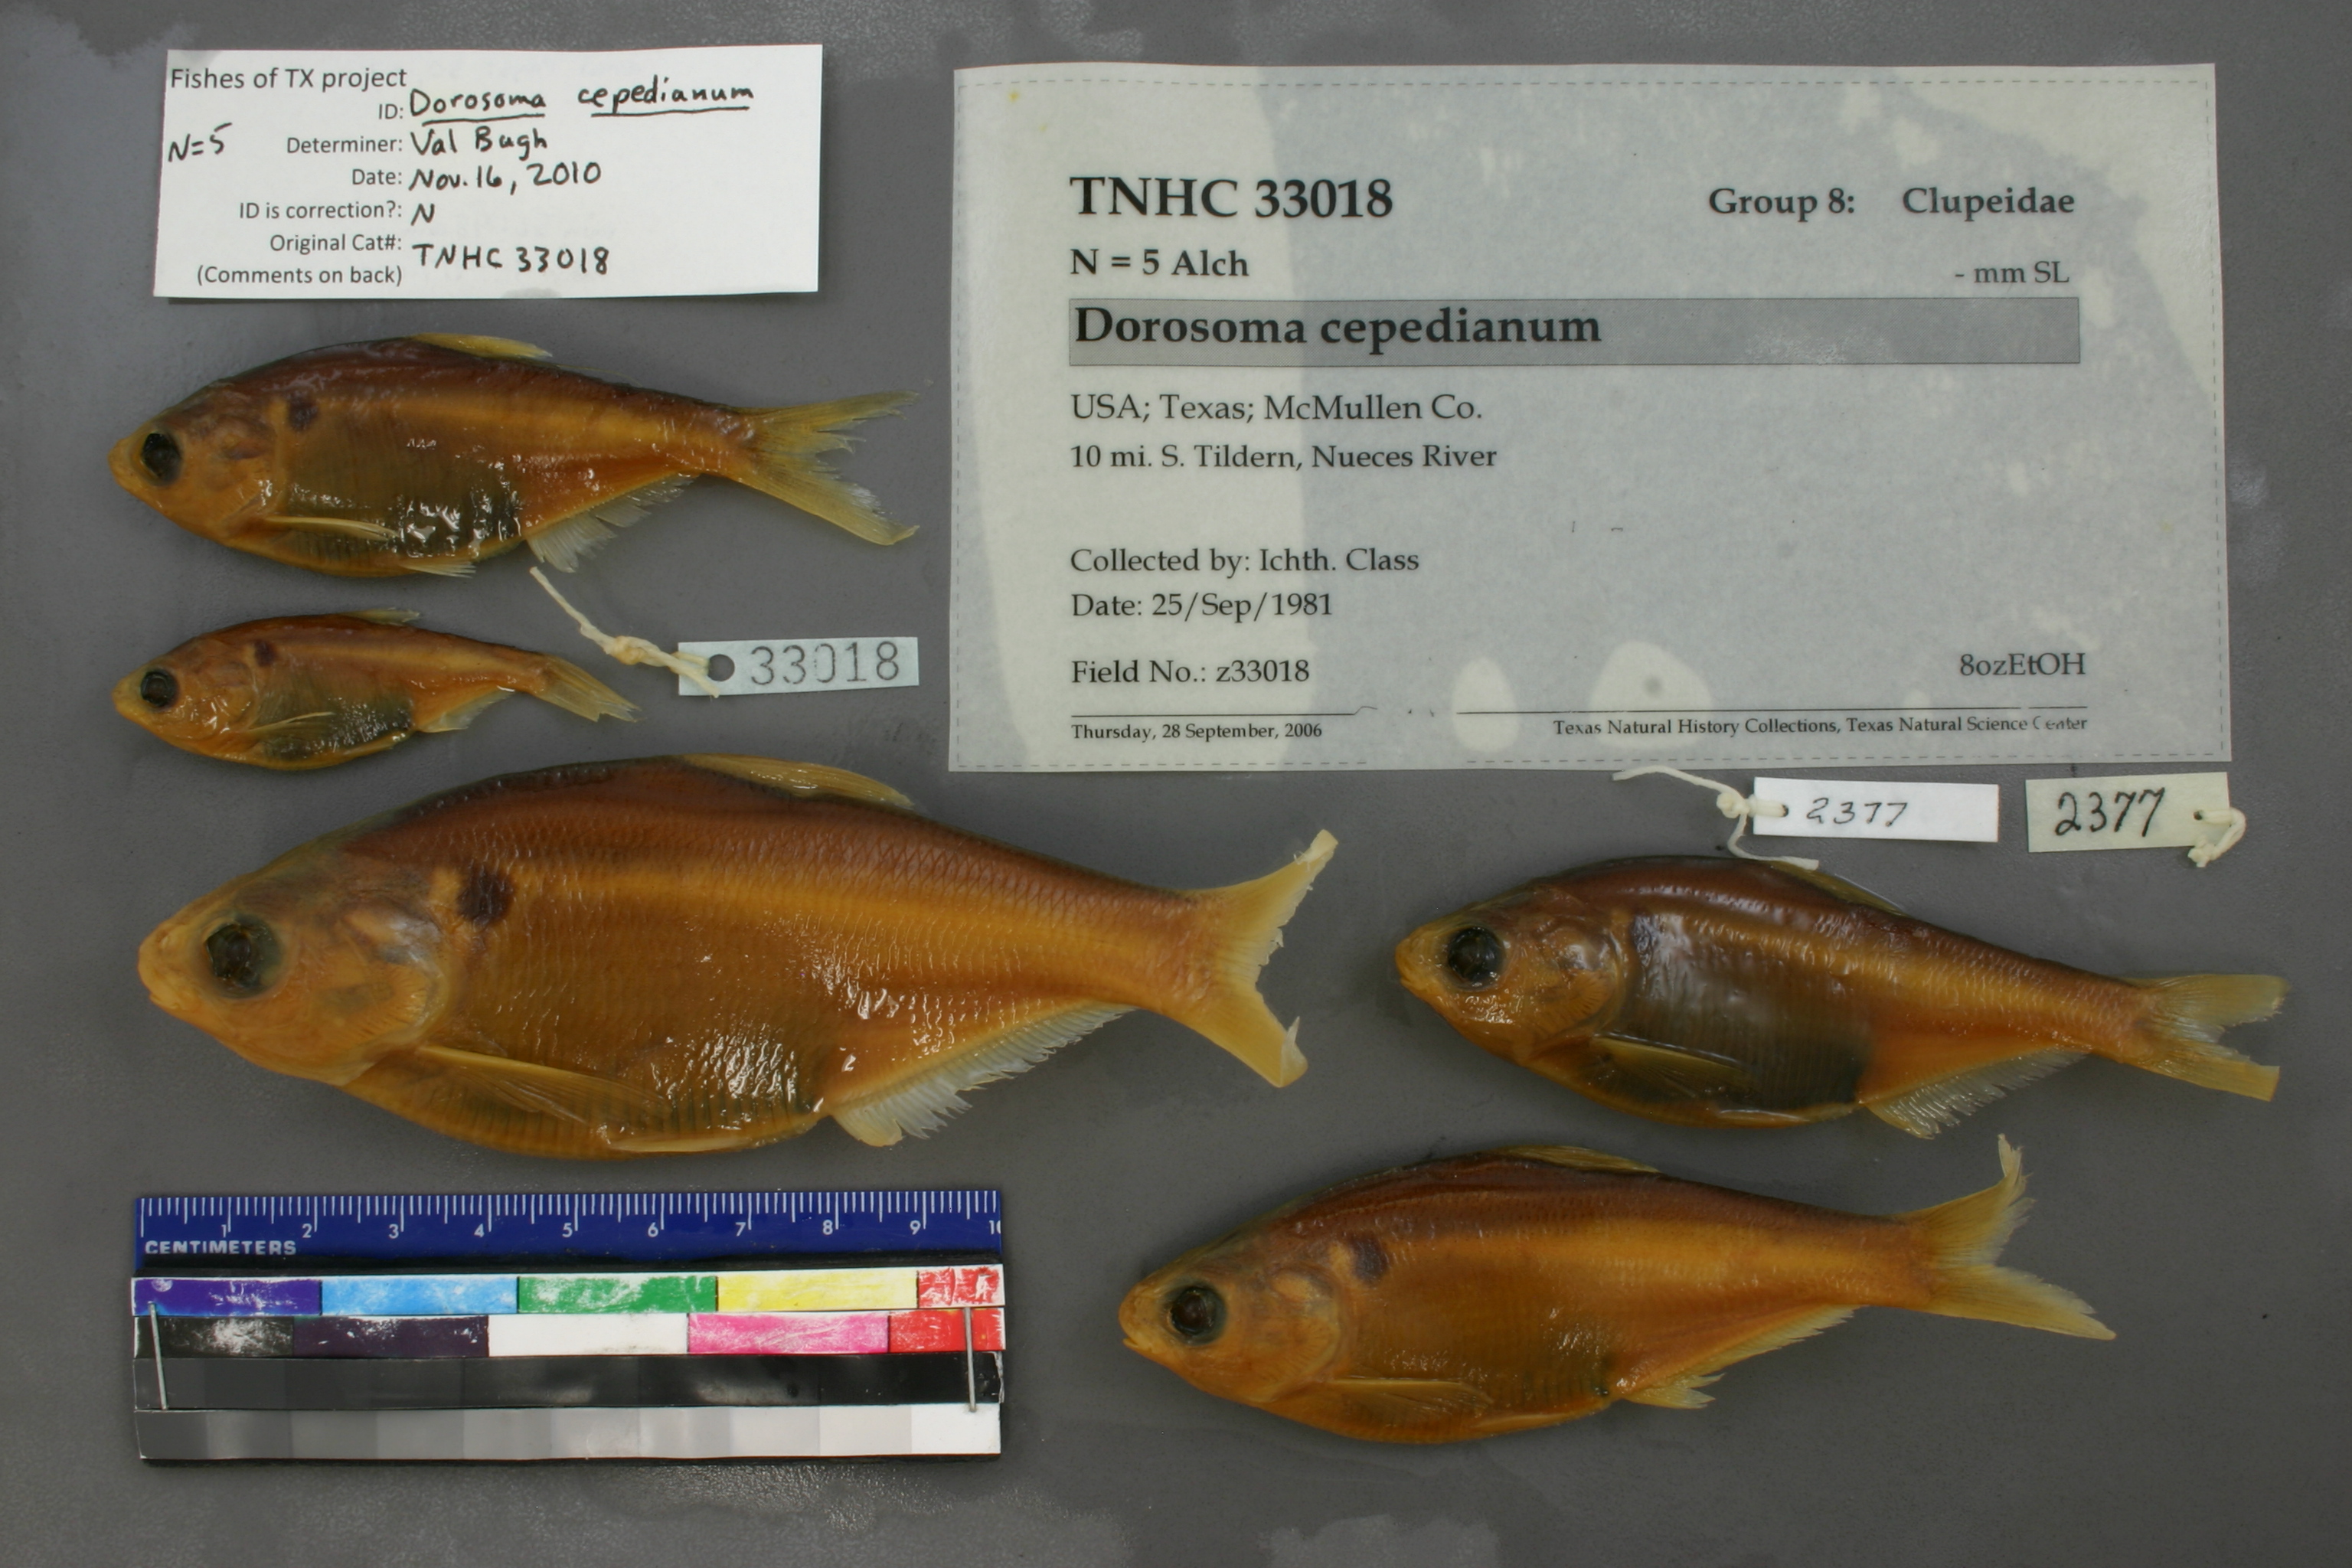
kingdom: Animalia
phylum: Chordata
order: Clupeiformes
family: Clupeidae
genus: Dorosoma
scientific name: Dorosoma cepedianum
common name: Gizzard shad
